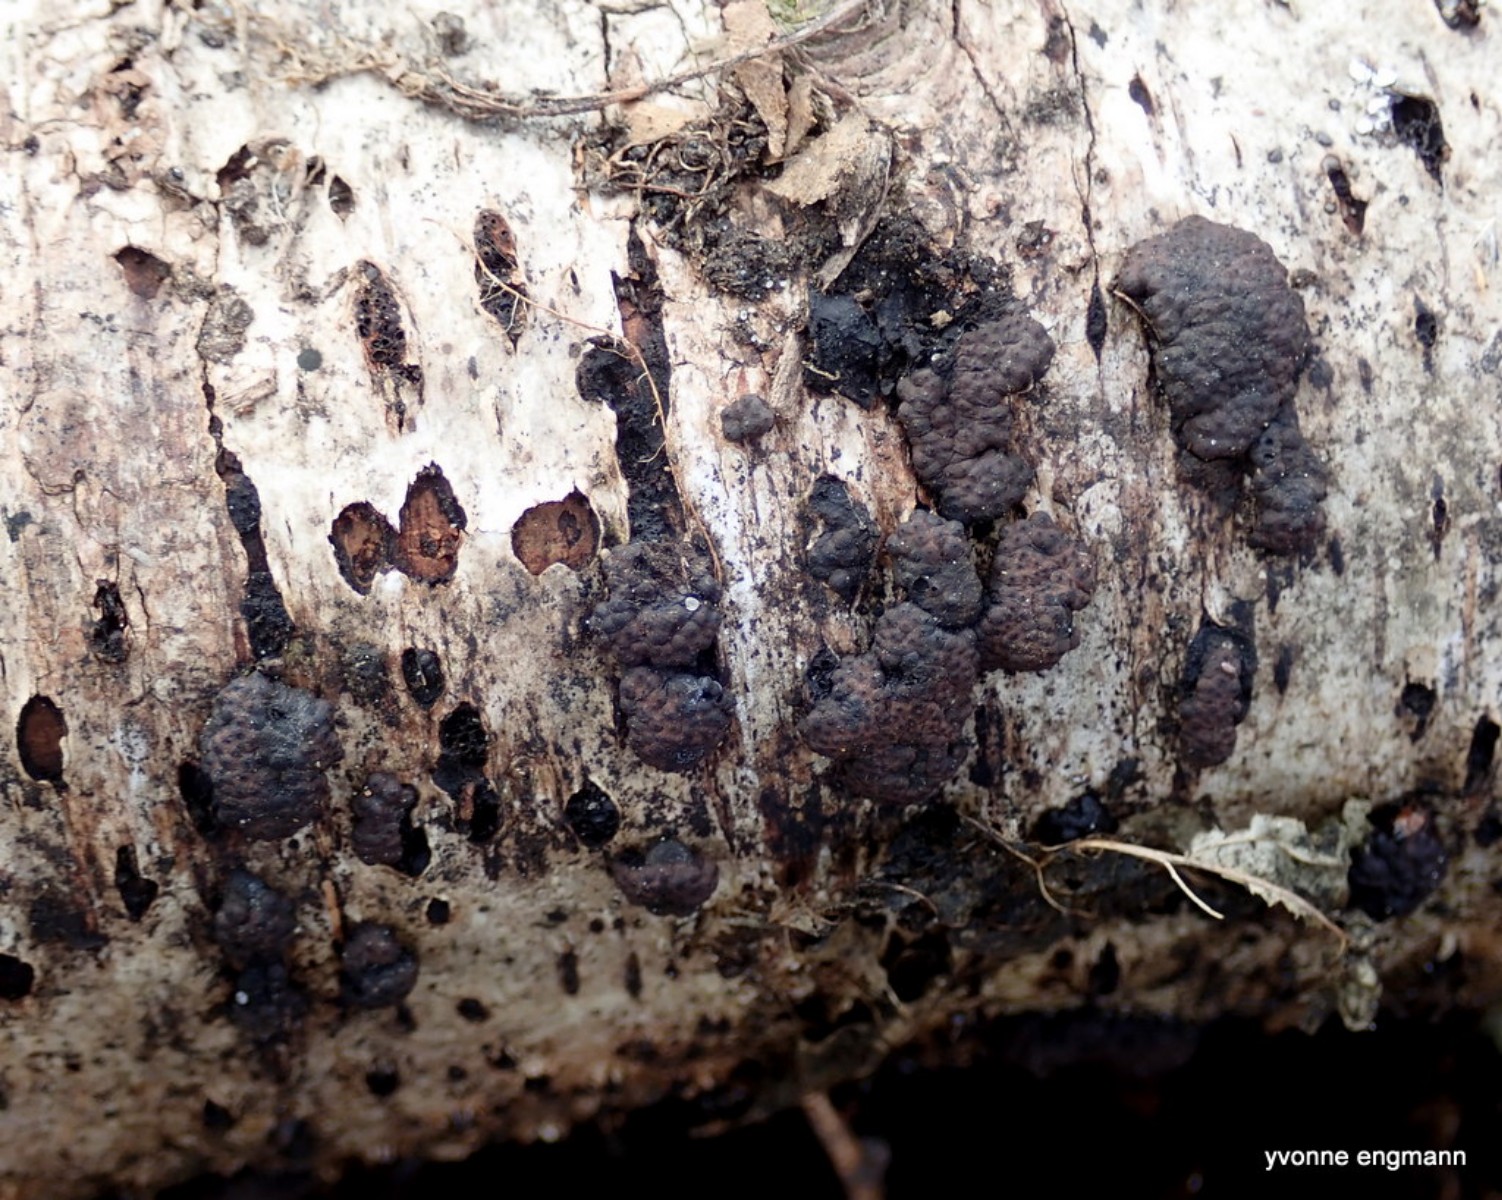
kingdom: Fungi
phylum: Ascomycota
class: Sordariomycetes
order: Xylariales
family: Hypoxylaceae
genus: Jackrogersella
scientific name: Jackrogersella multiformis
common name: foranderlig kulbær
